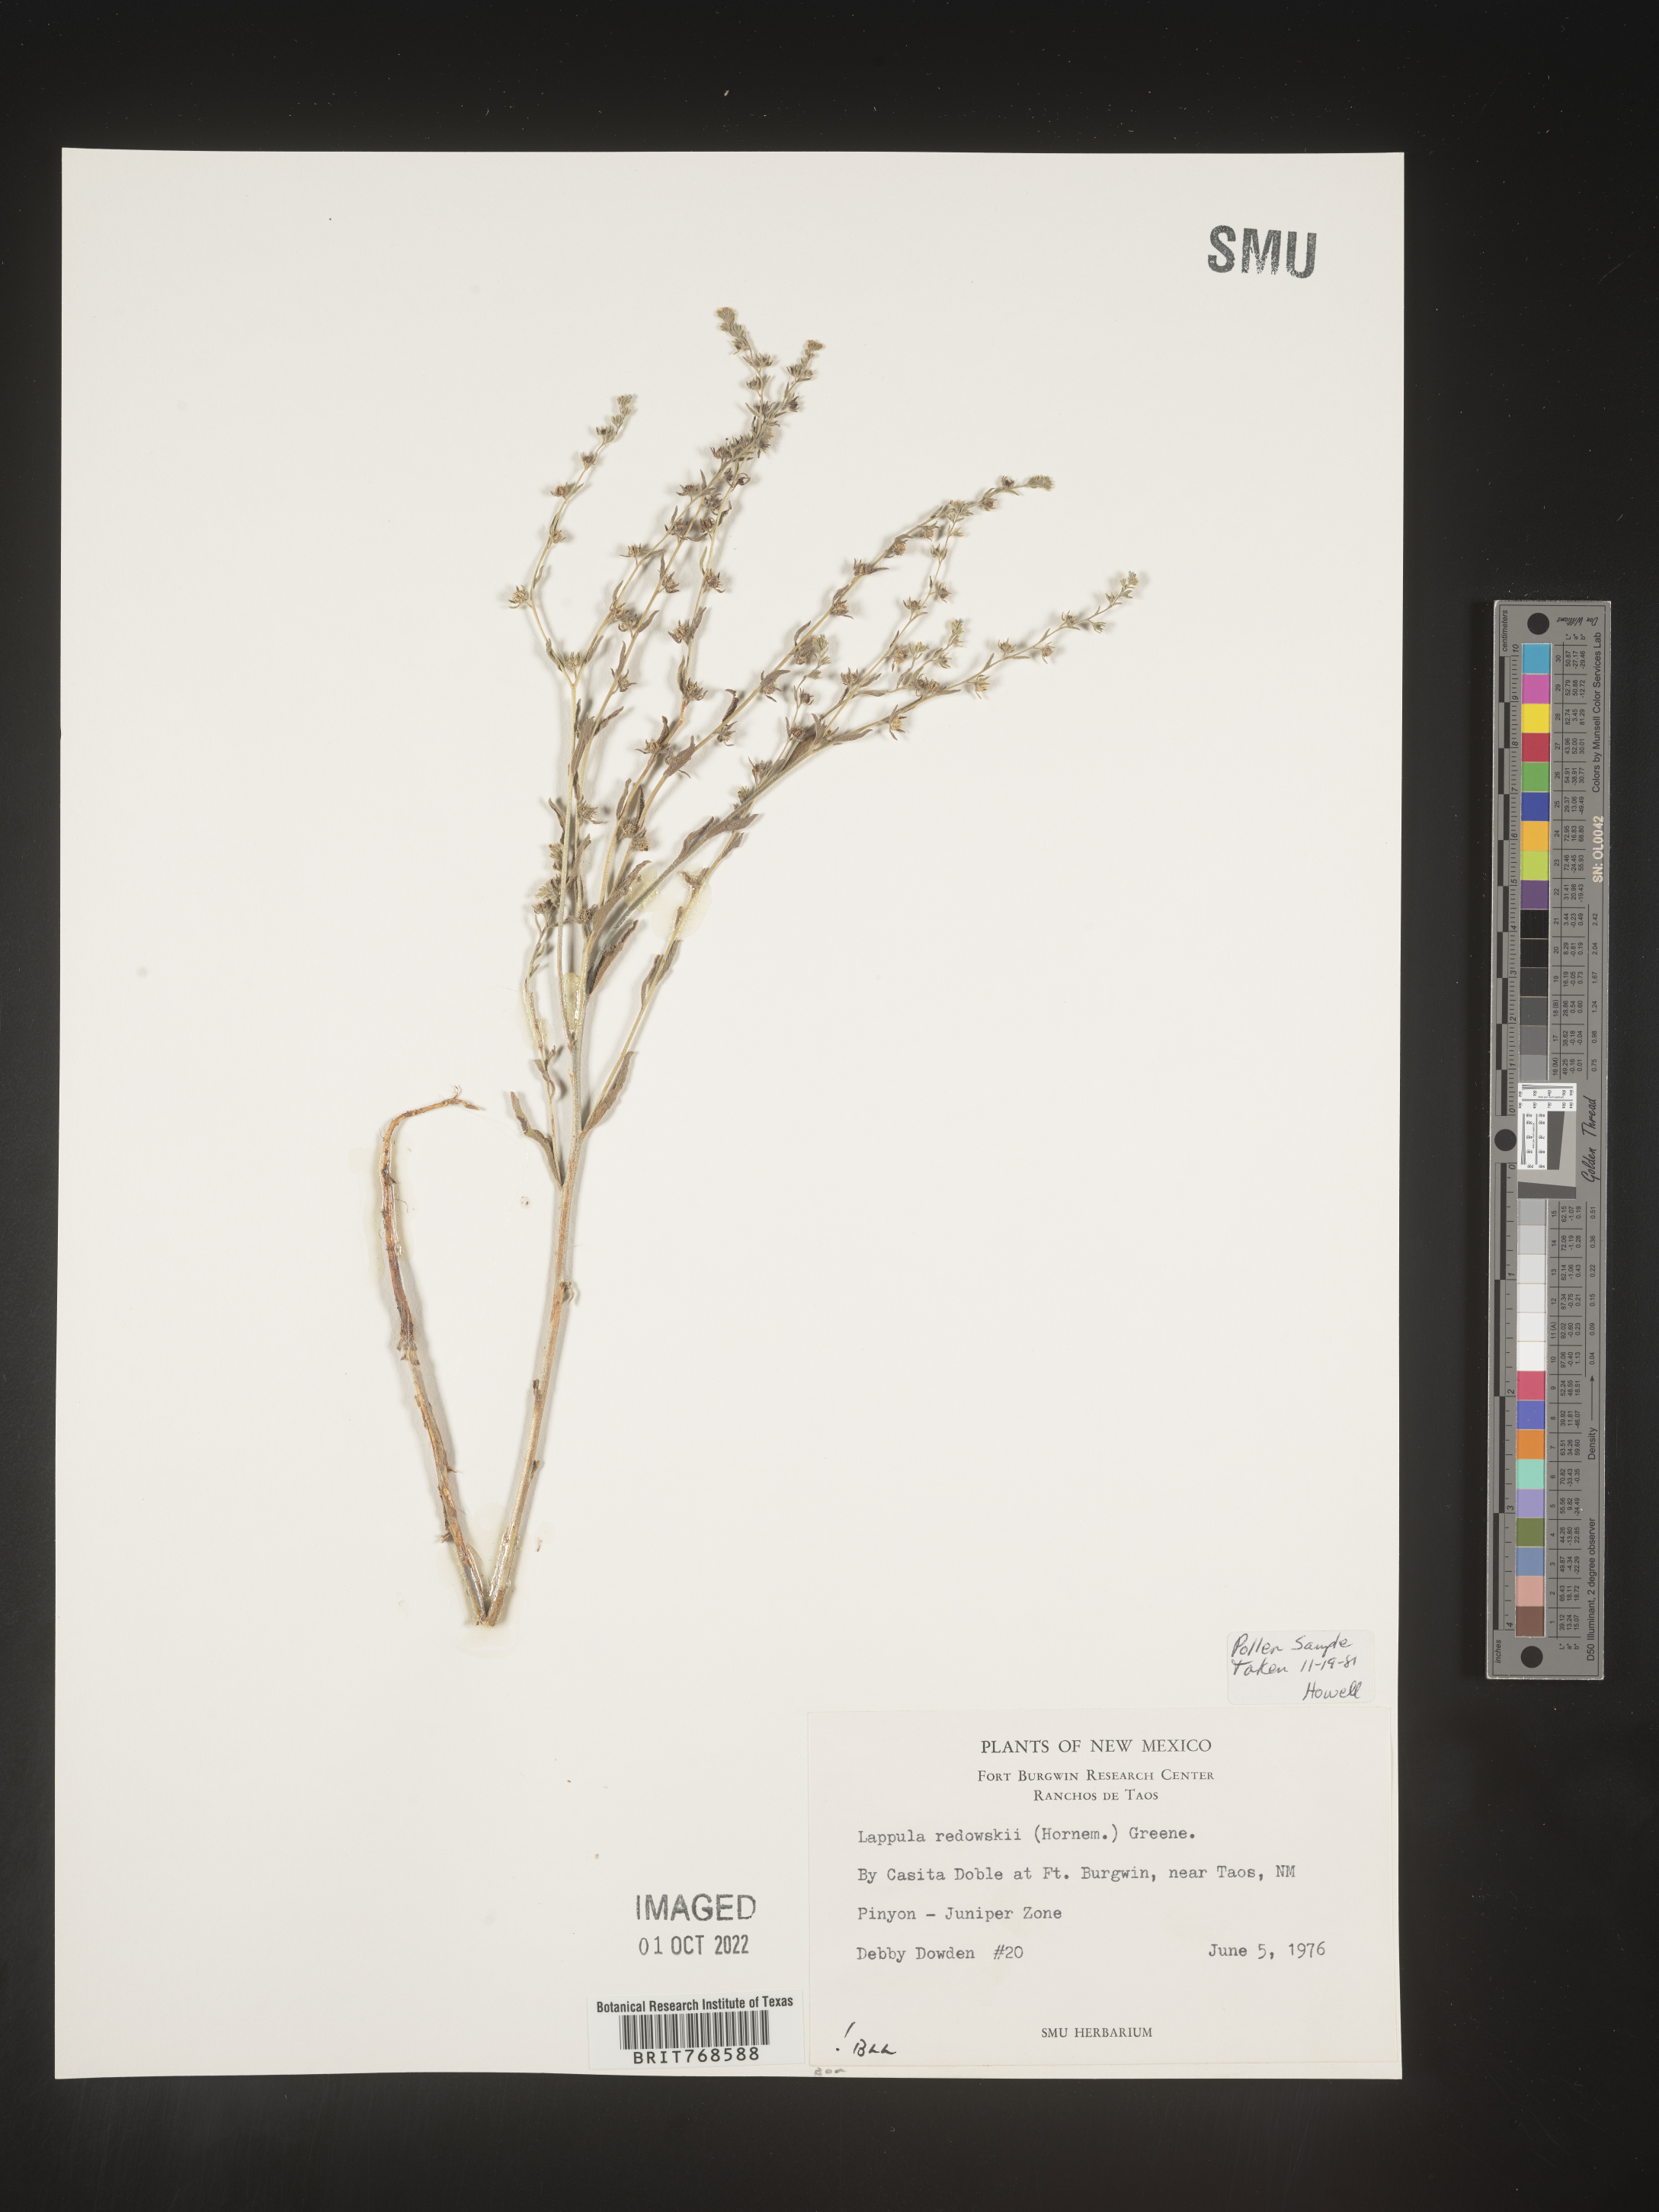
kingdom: Plantae
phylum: Tracheophyta
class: Magnoliopsida
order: Boraginales
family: Boraginaceae
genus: Lappula
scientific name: Lappula redowskii
